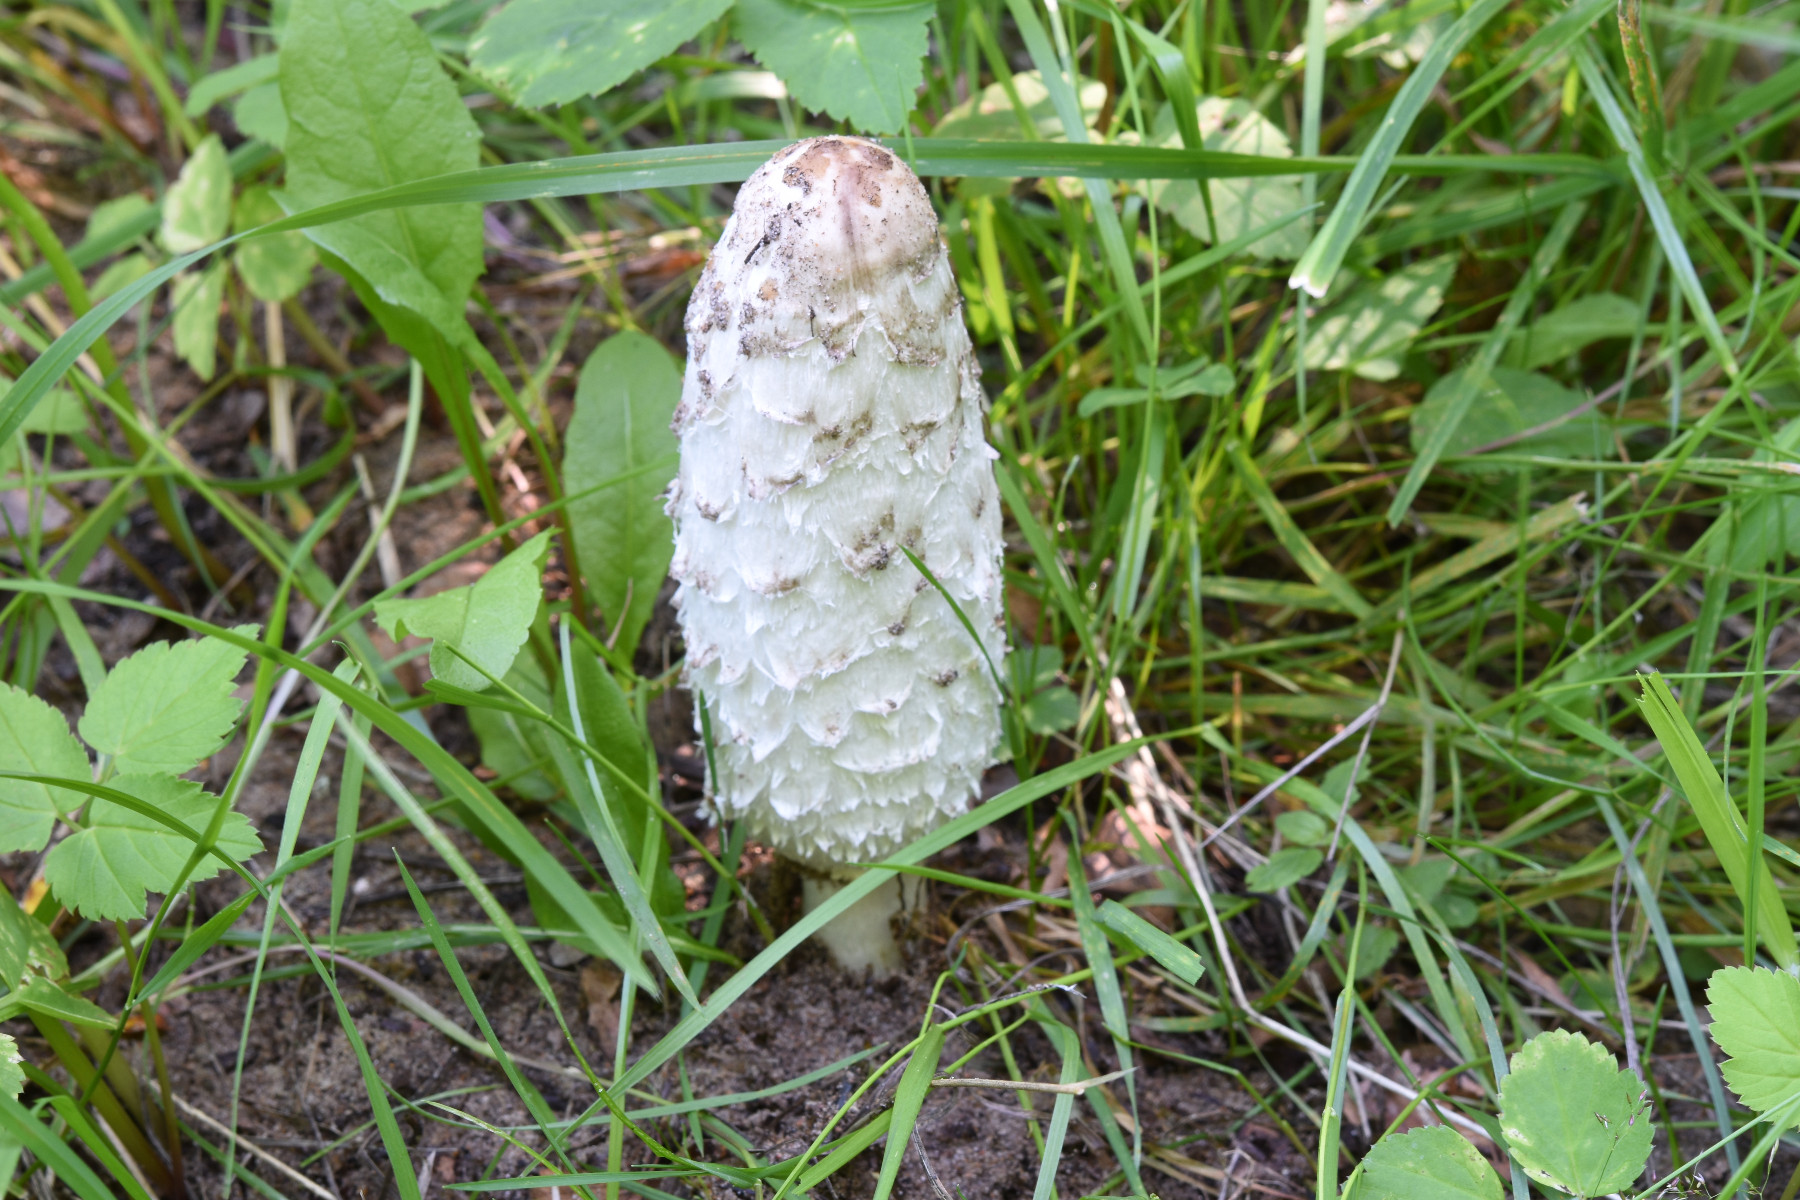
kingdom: Fungi
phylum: Basidiomycota
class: Agaricomycetes
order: Agaricales
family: Agaricaceae
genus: Coprinus
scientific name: Coprinus comatus
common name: stor parykhat
